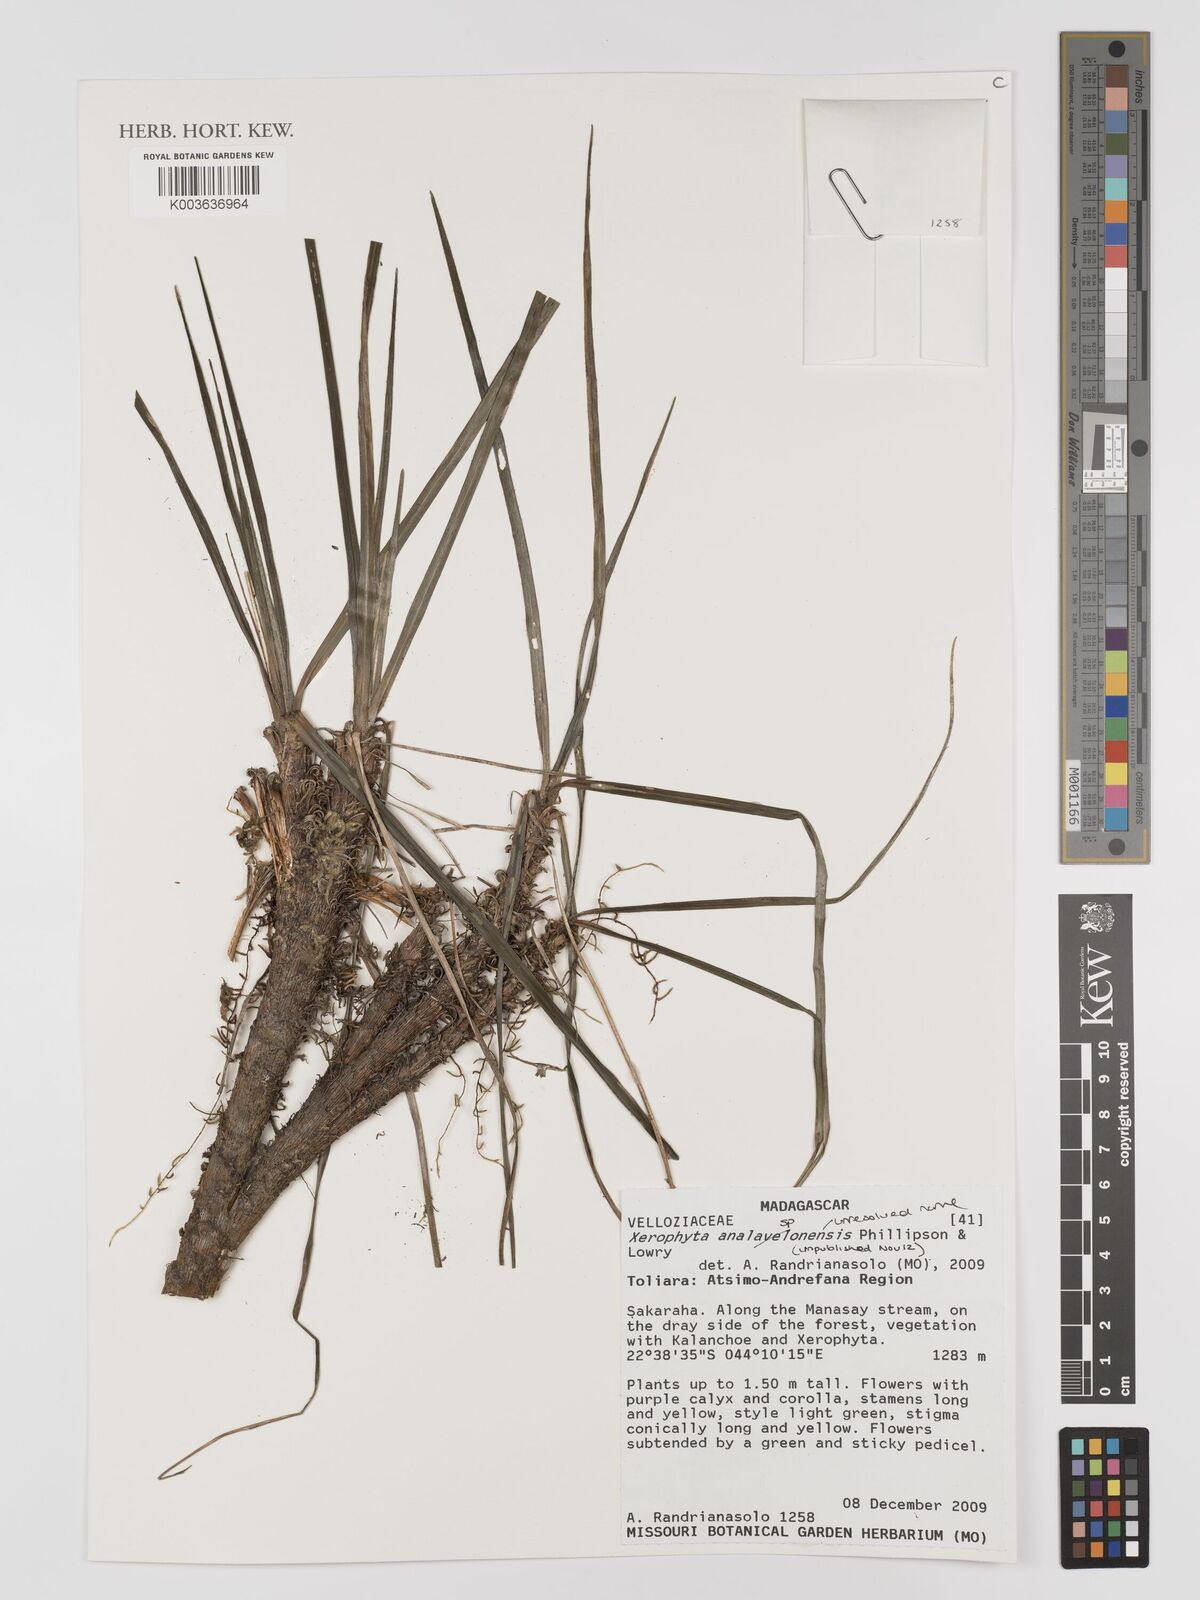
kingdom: Plantae
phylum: Tracheophyta
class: Liliopsida
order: Pandanales
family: Velloziaceae
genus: Xerophyta
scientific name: Xerophyta
